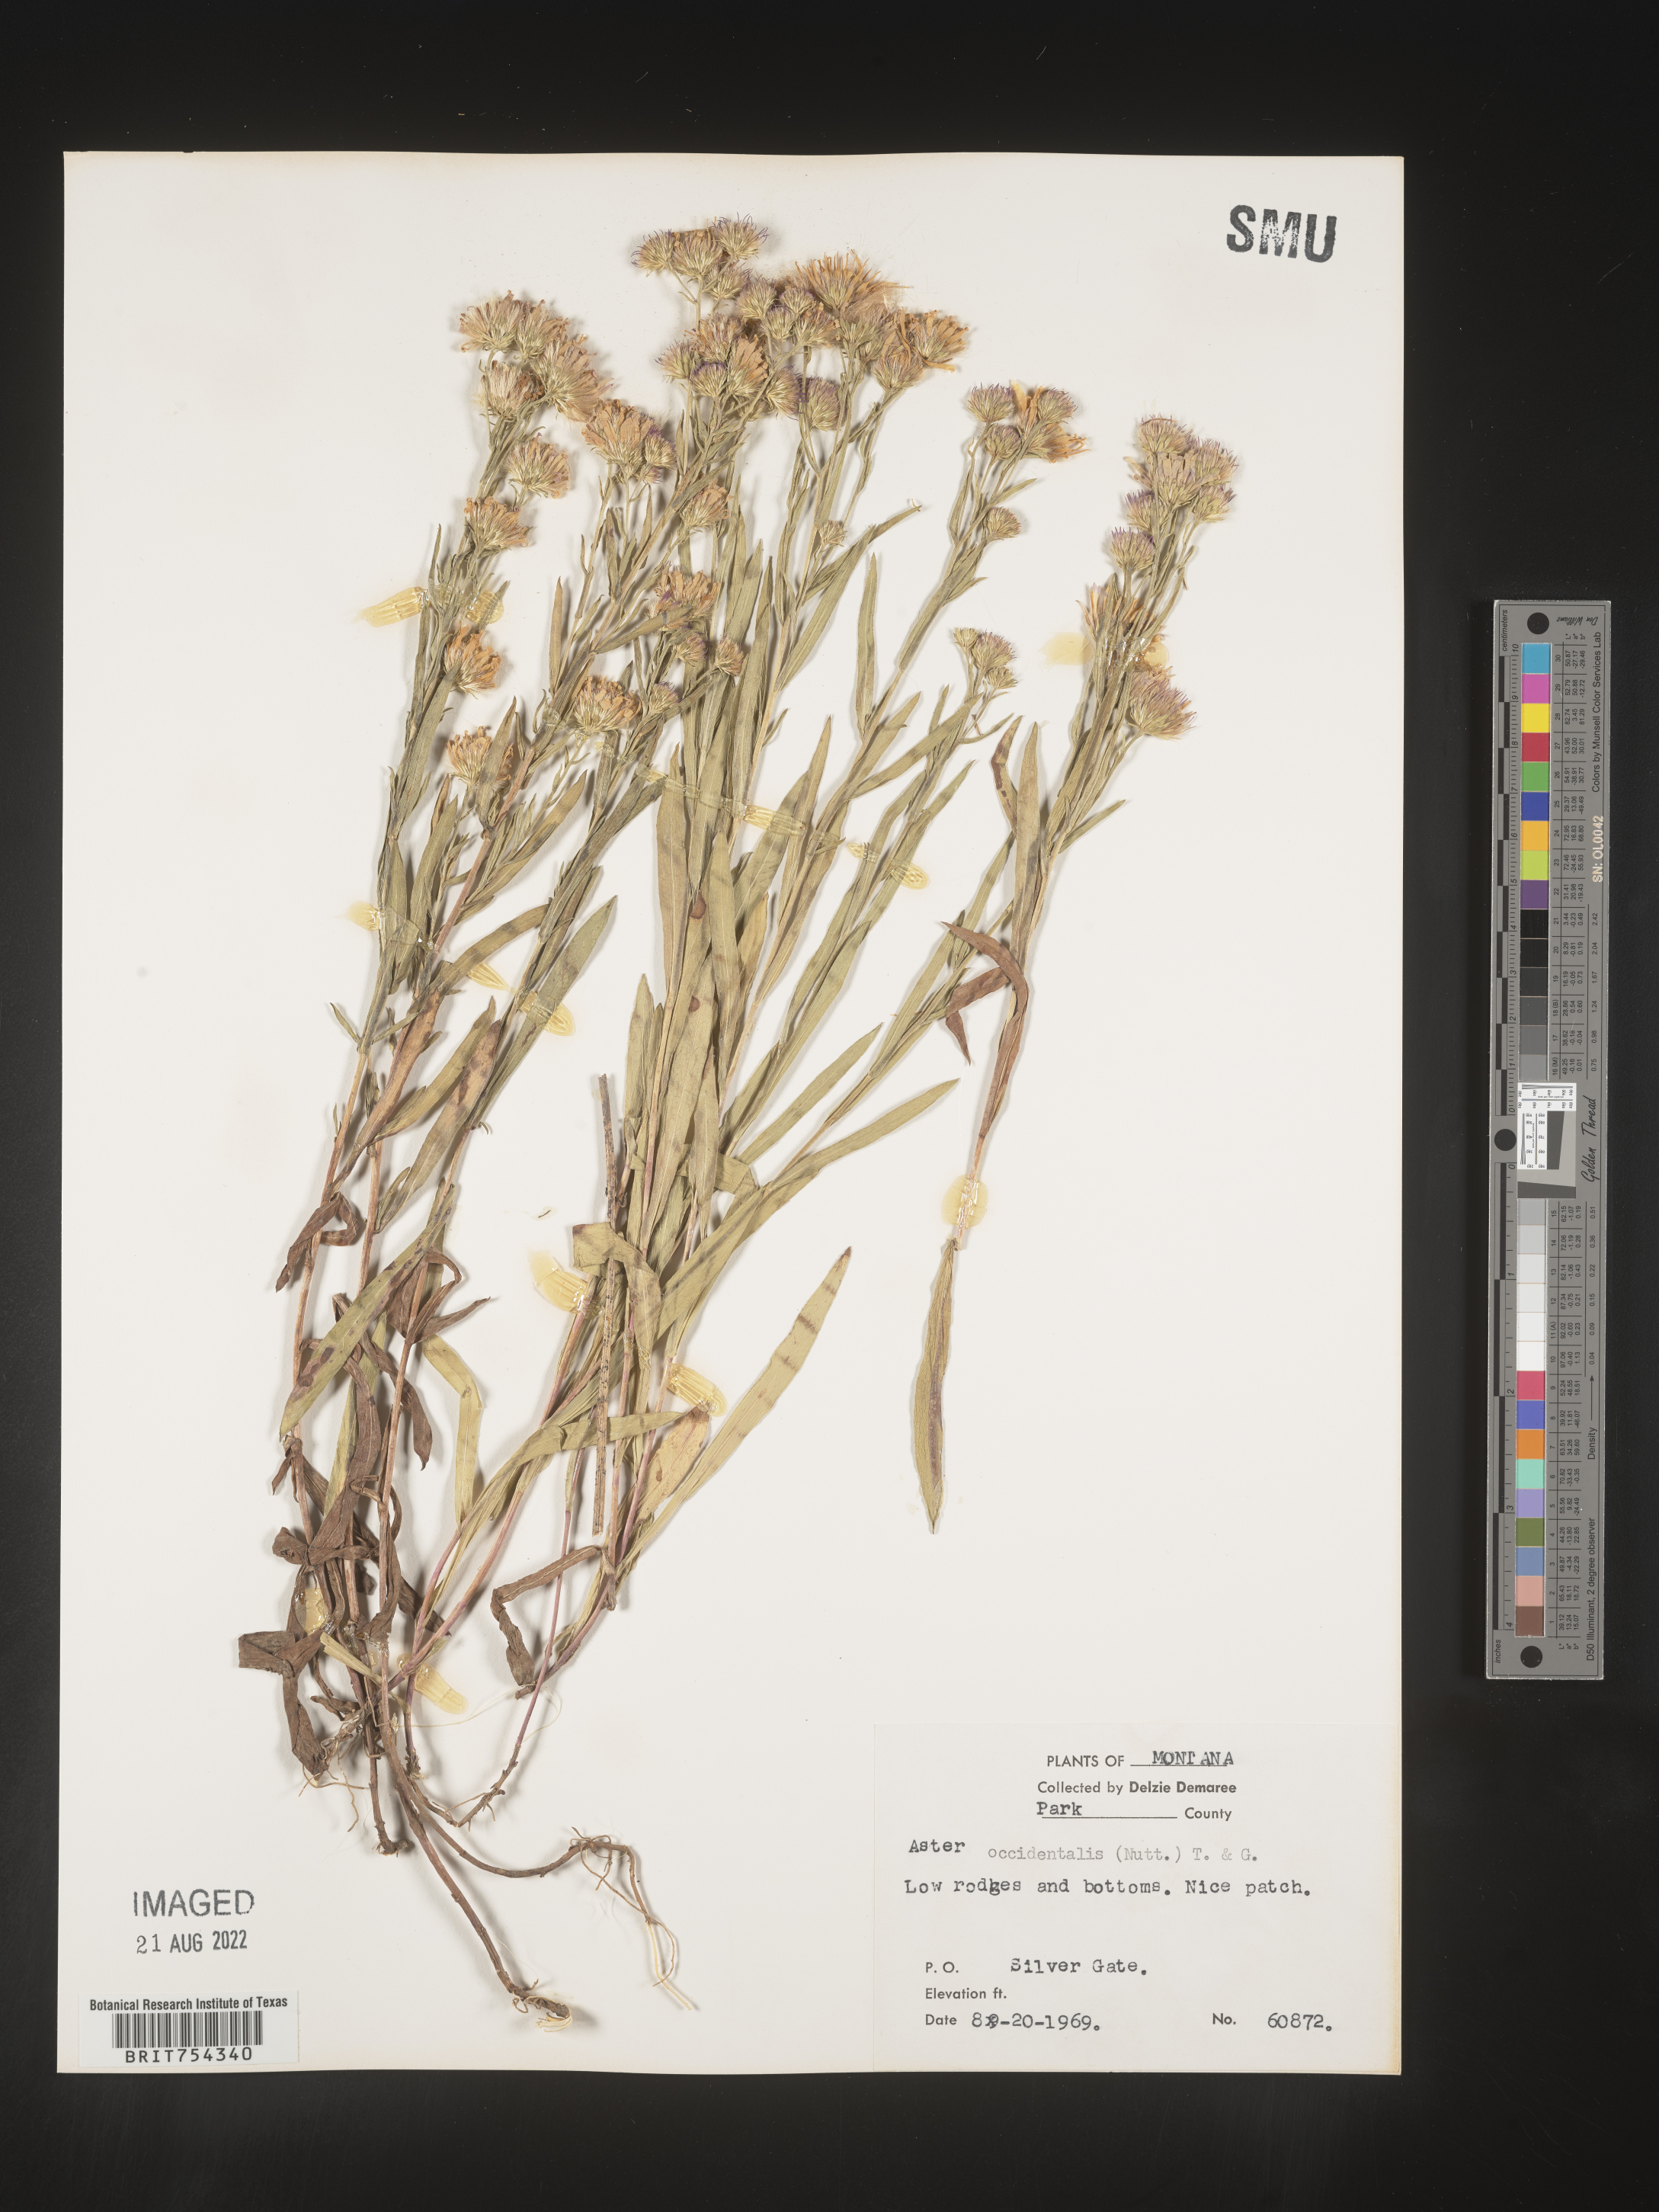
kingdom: Plantae
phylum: Tracheophyta
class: Magnoliopsida
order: Asterales
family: Asteraceae
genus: Symphyotrichum
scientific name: Symphyotrichum spathulatum
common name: Western mountain aster
